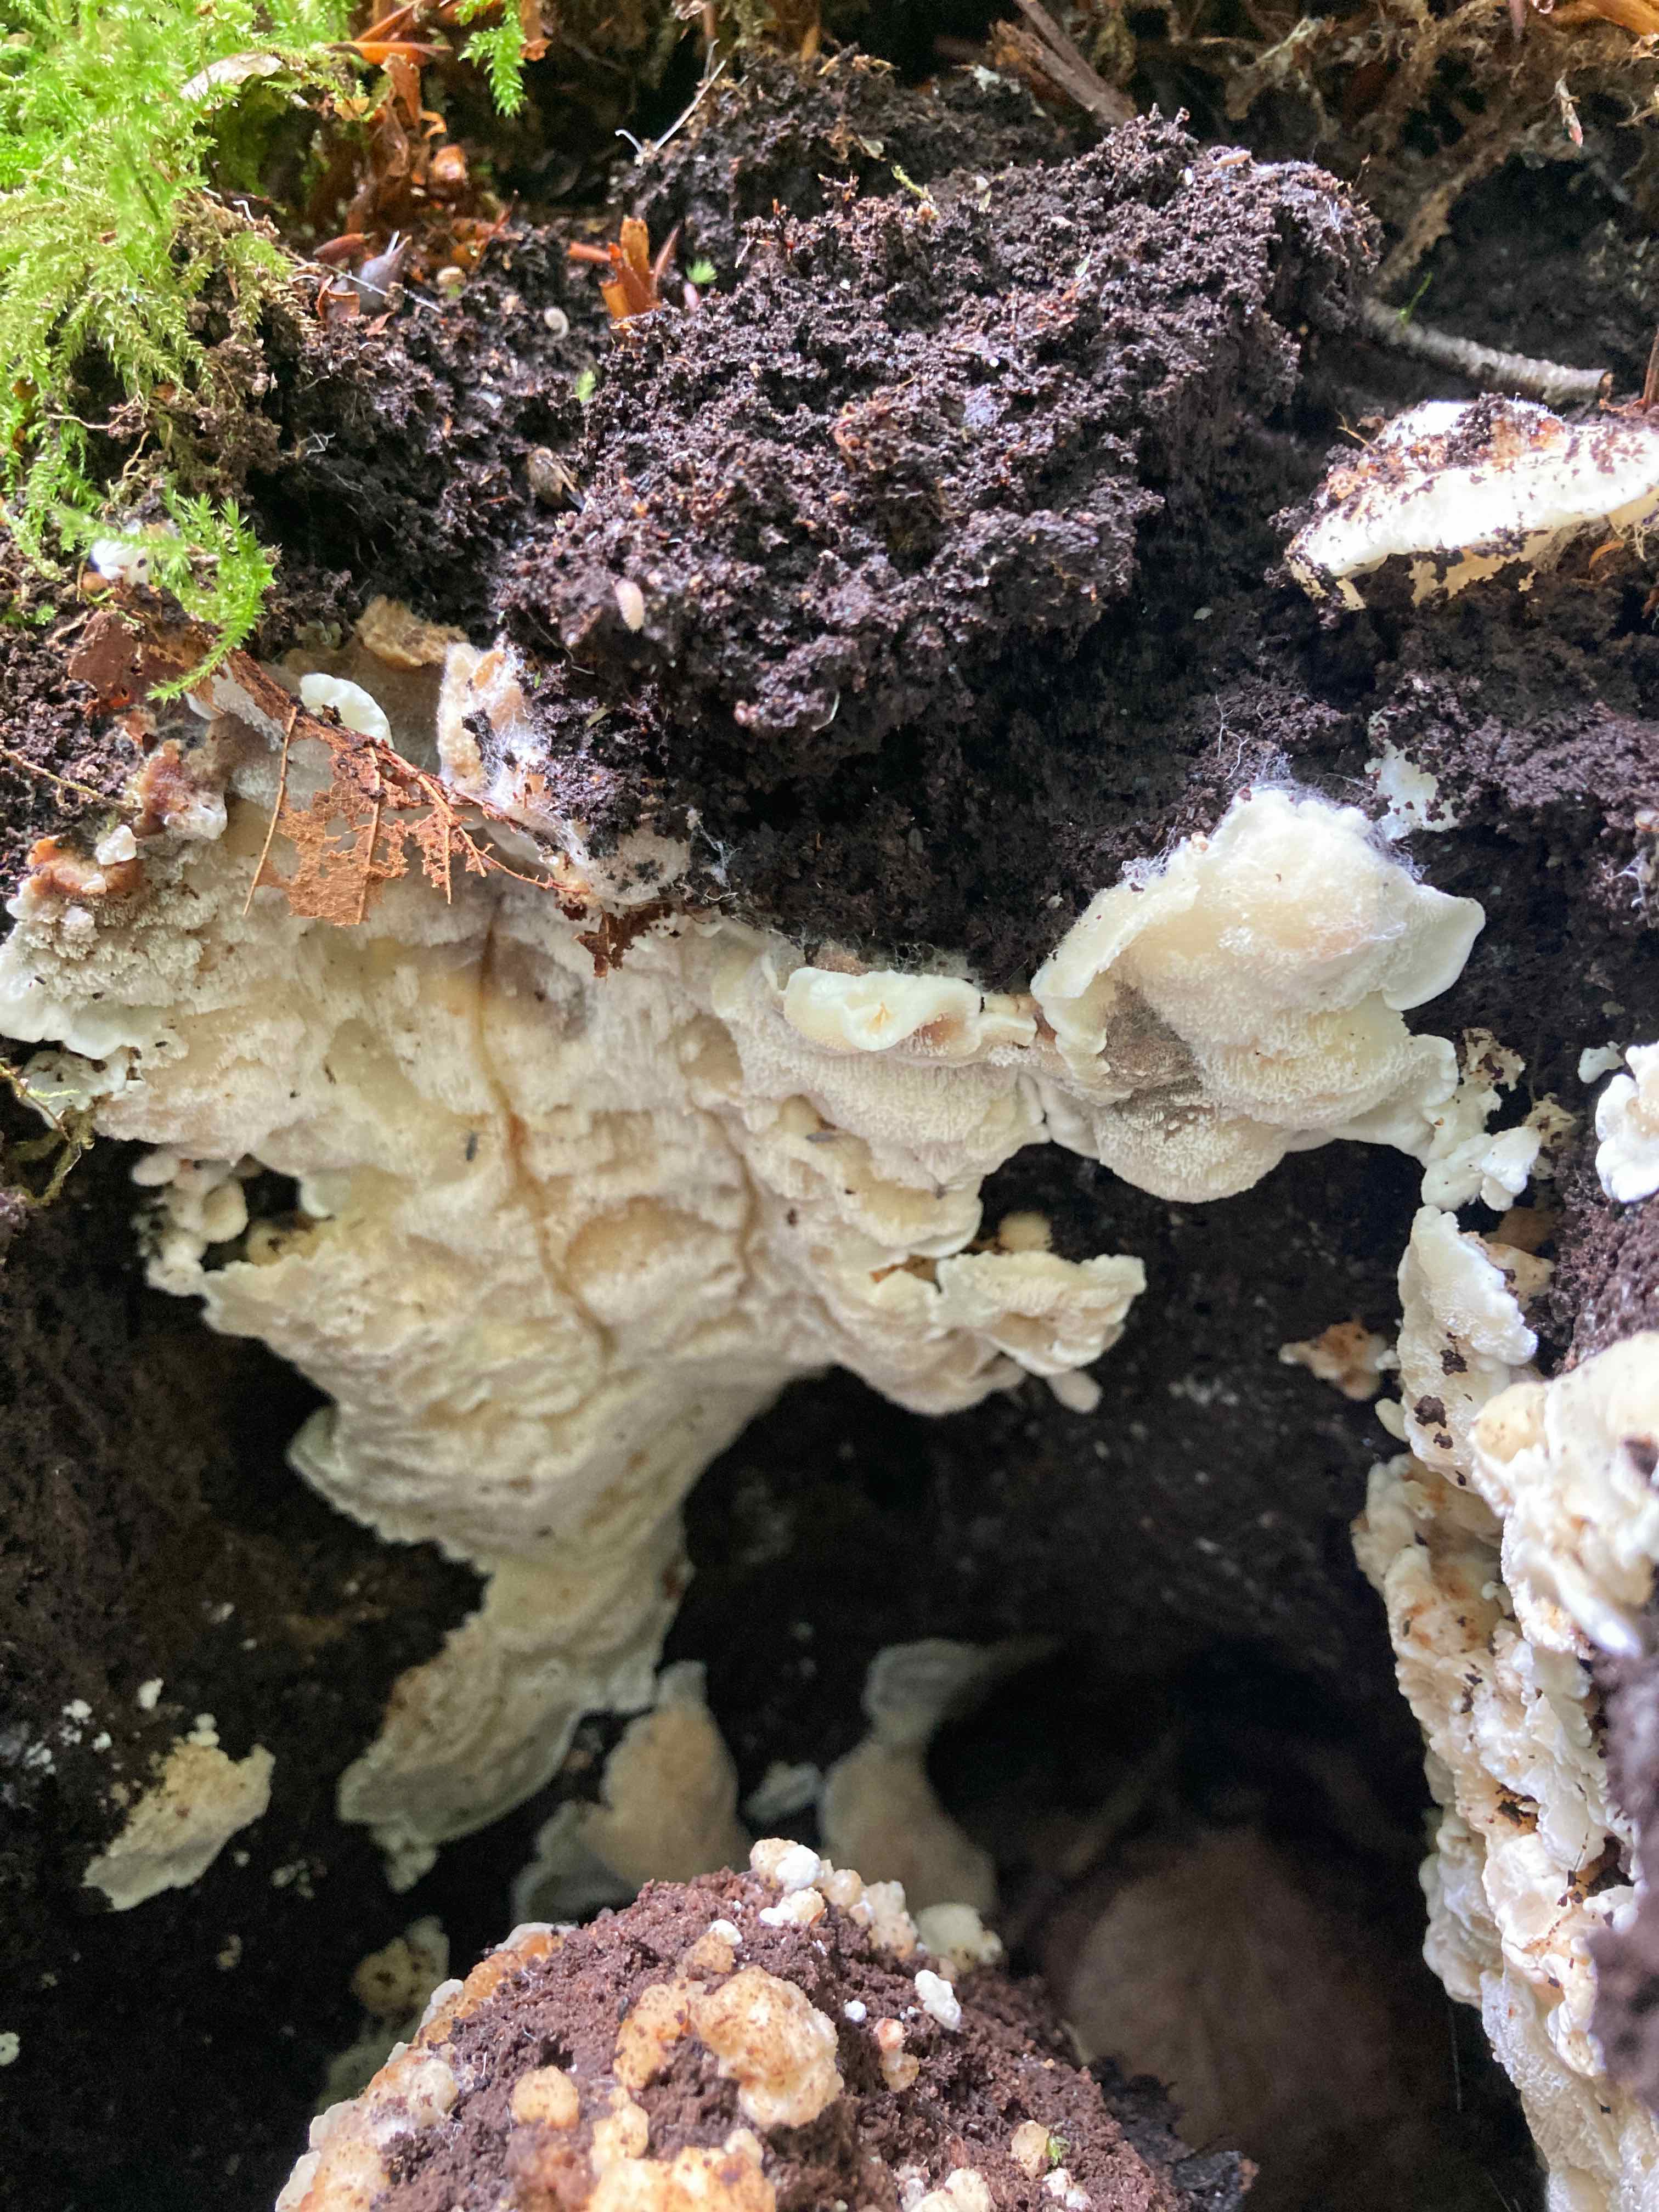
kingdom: Fungi
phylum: Basidiomycota
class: Agaricomycetes
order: Polyporales
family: Meruliaceae
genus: Physisporinus
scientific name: Physisporinus vitreus
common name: mastesvamp
